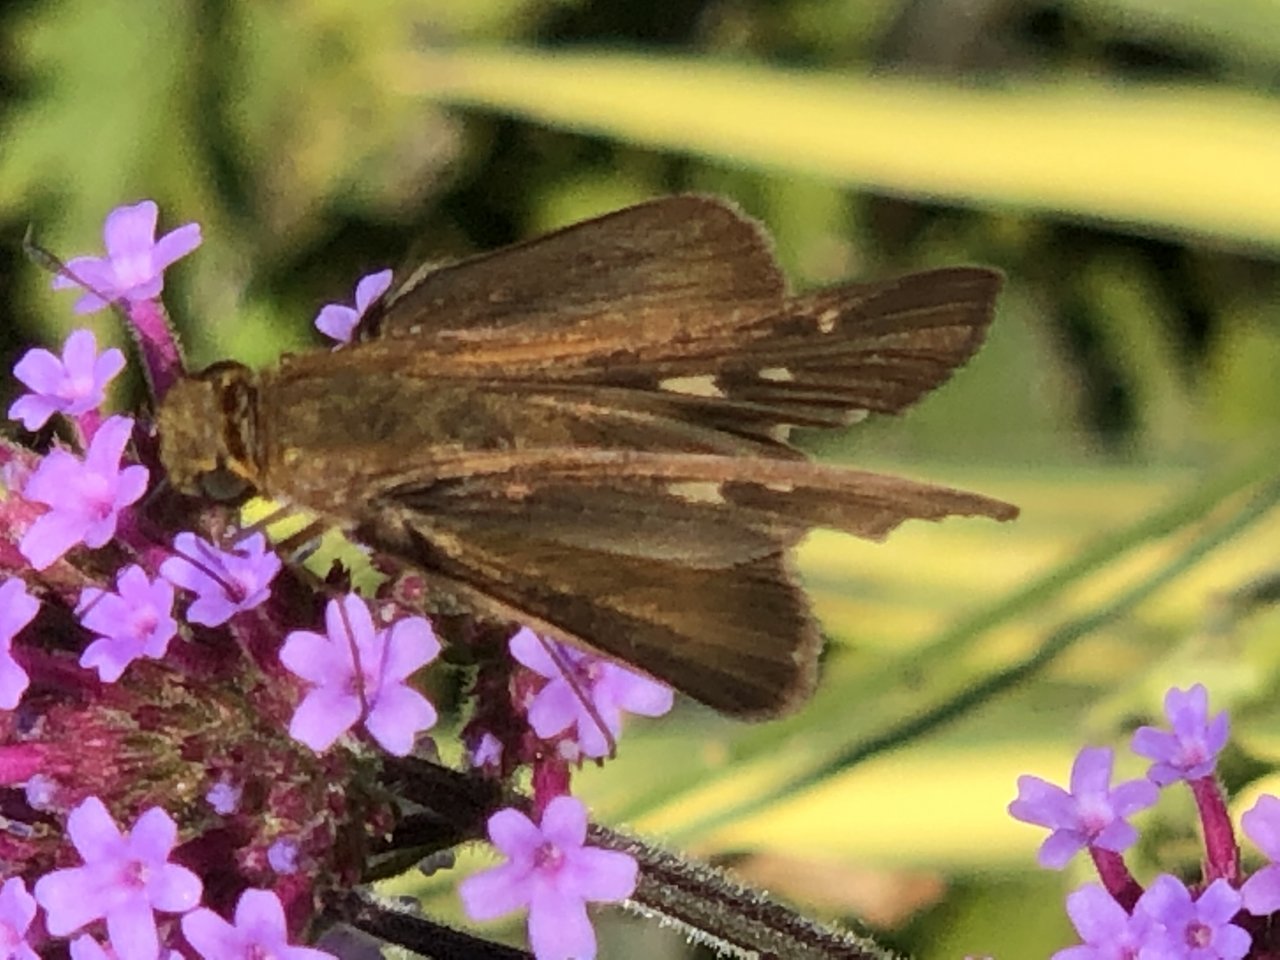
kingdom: Animalia
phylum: Arthropoda
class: Insecta
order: Lepidoptera
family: Hesperiidae
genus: Panoquina
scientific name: Panoquina ocola
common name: Ocola Skipper
